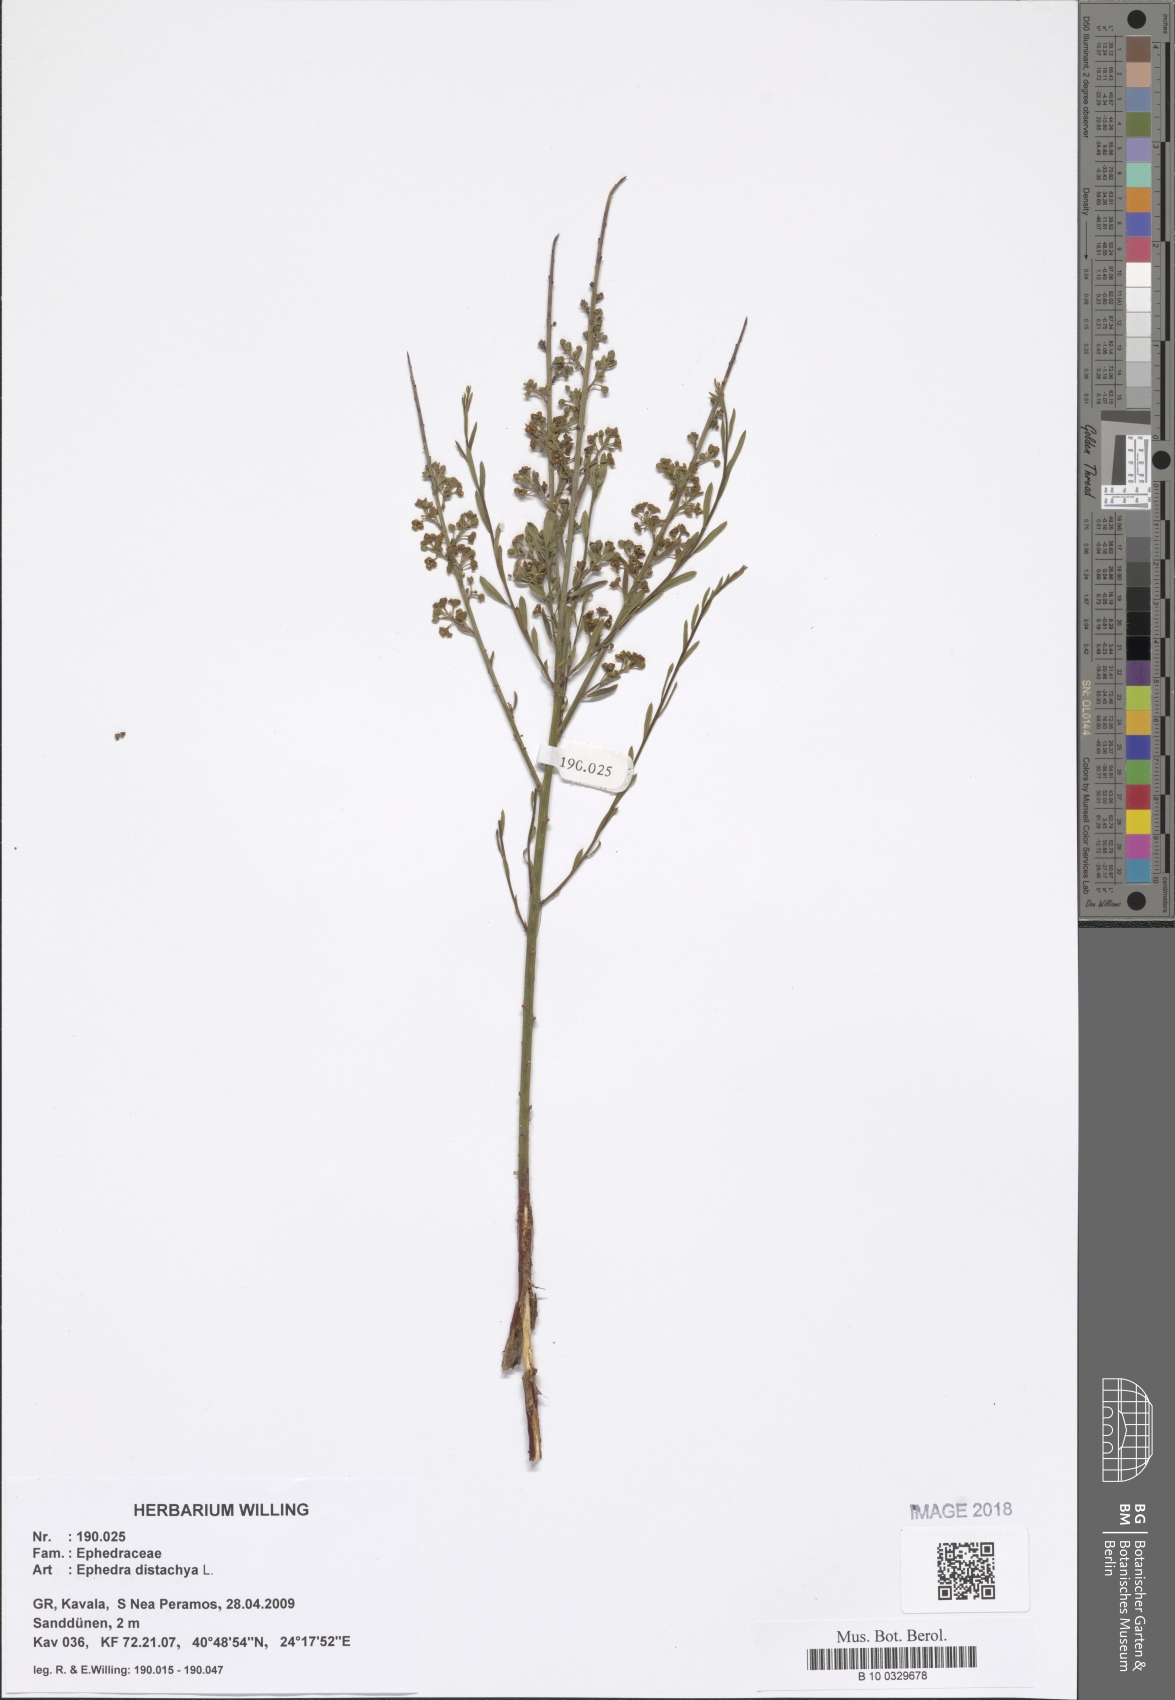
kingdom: Plantae
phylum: Tracheophyta
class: Magnoliopsida
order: Santalales
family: Santalaceae
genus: Osyris
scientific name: Osyris alba
